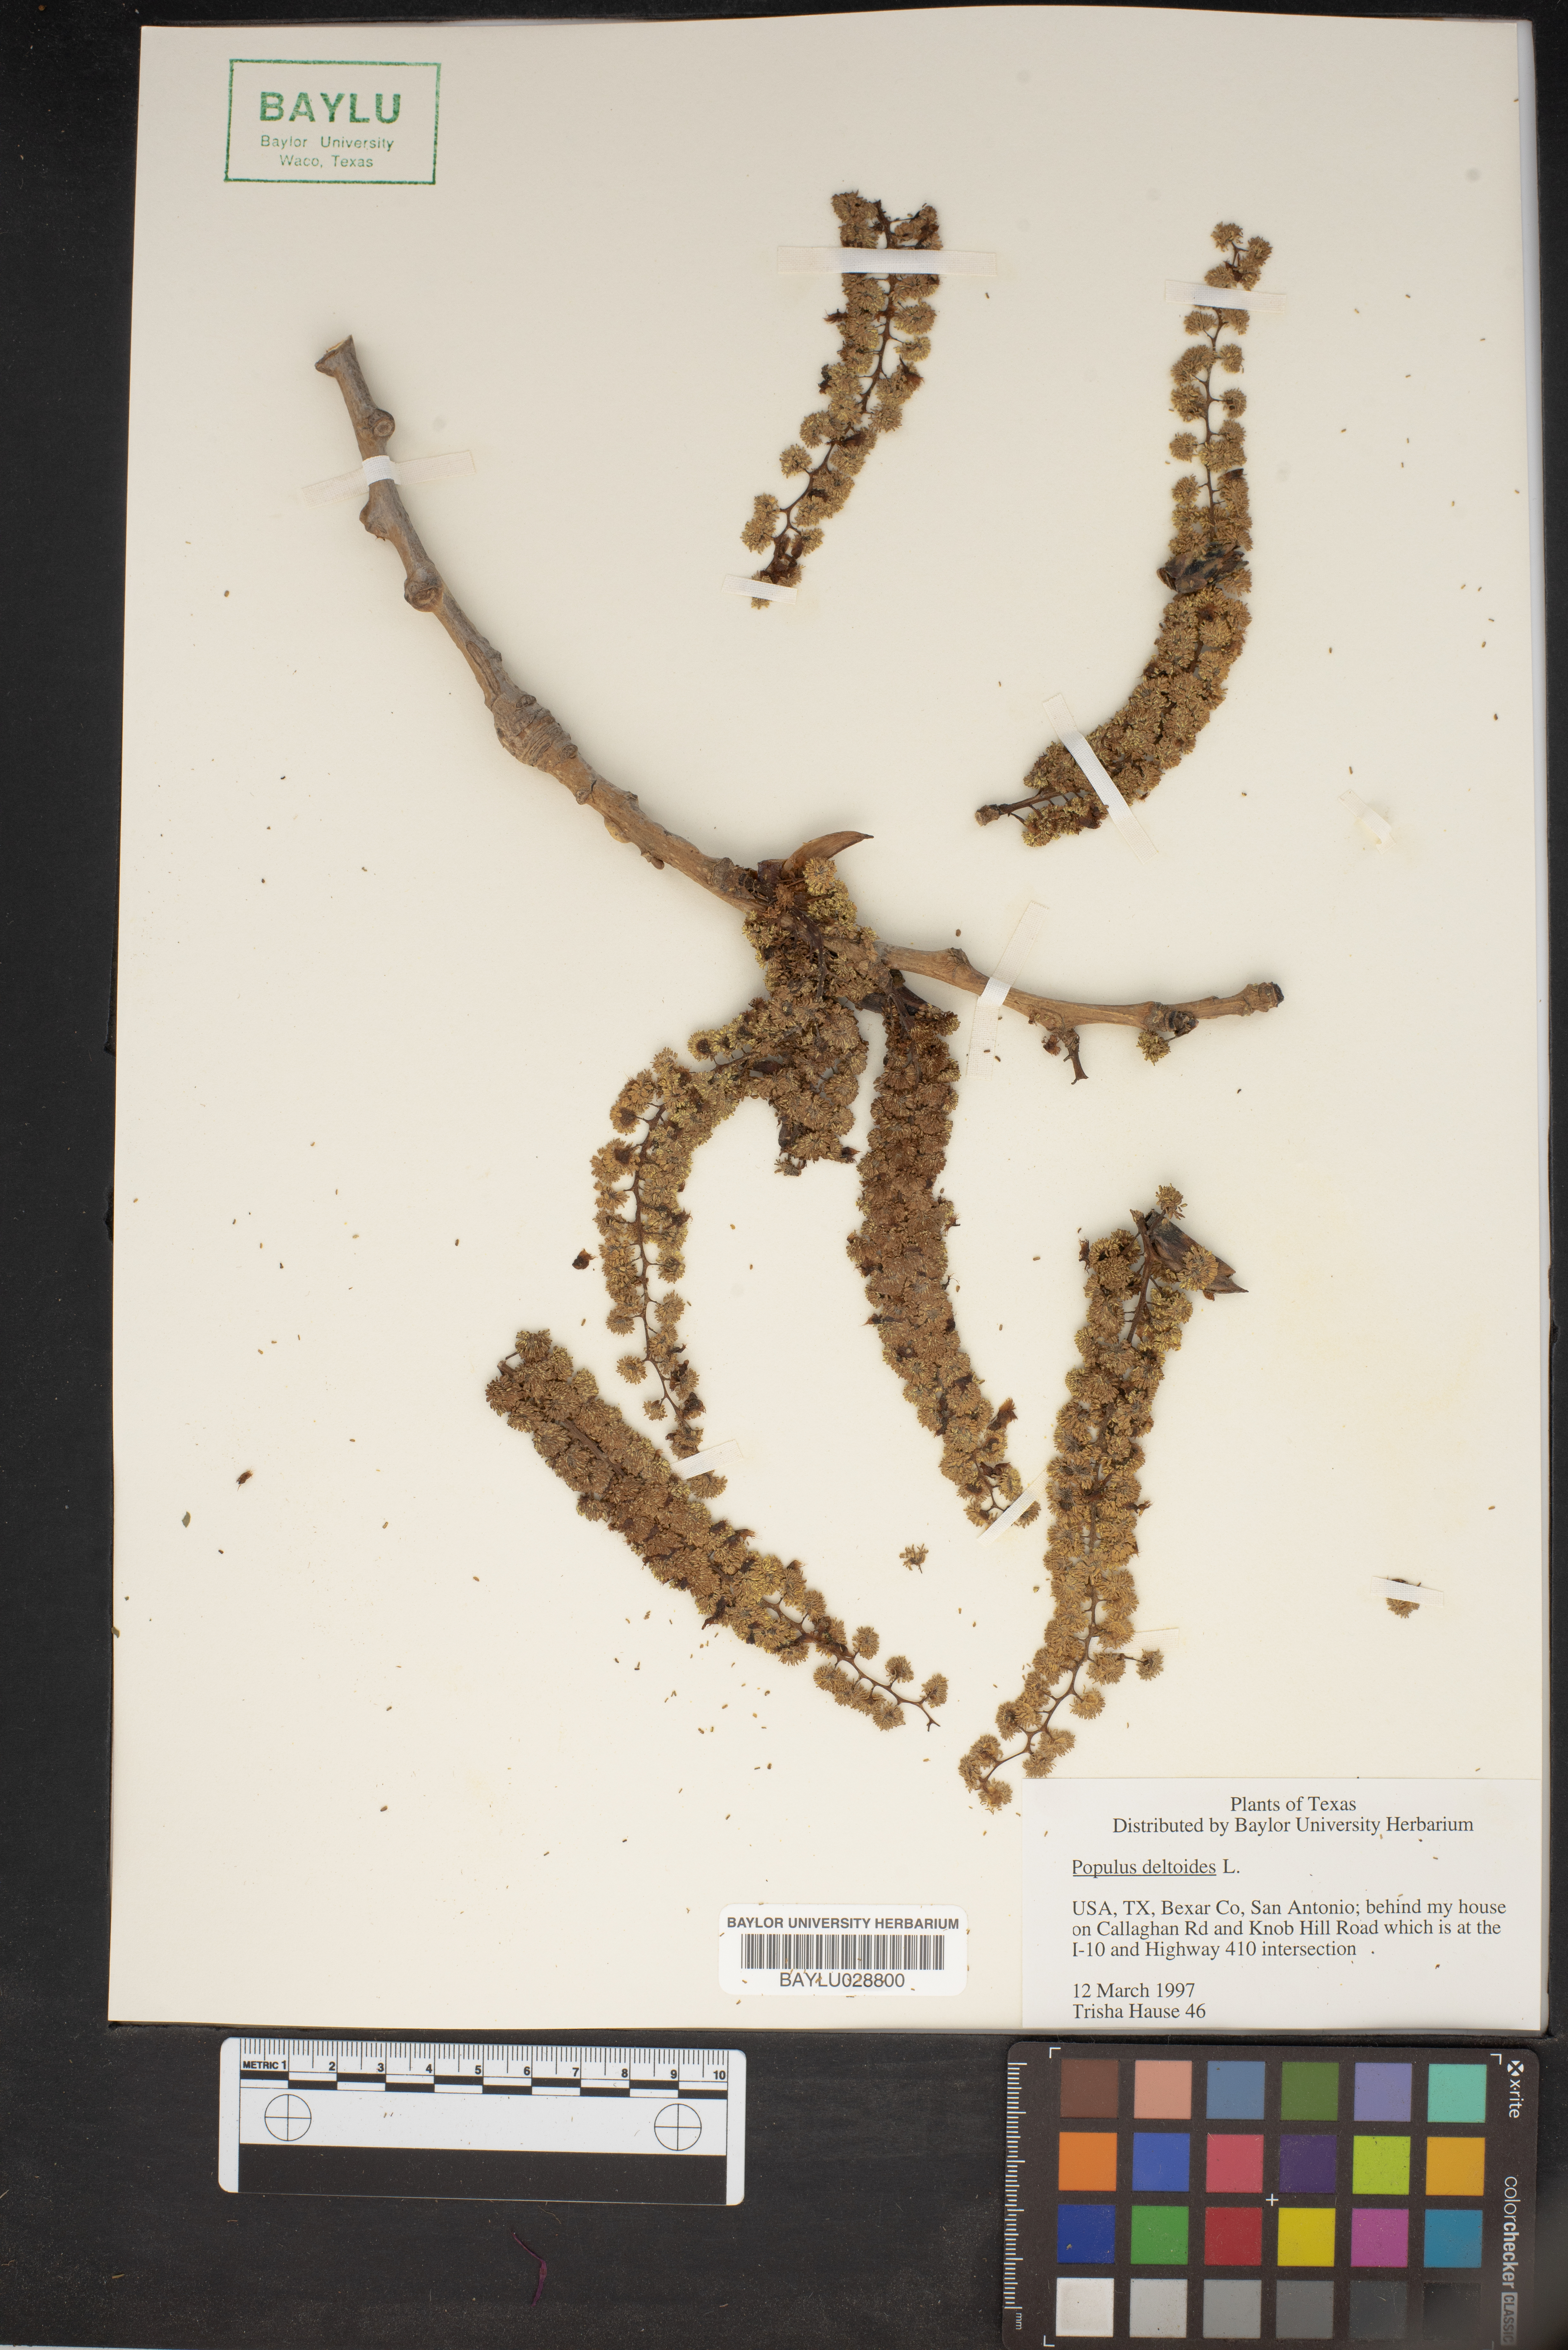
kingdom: Plantae
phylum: Tracheophyta
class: Magnoliopsida
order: Malpighiales
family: Salicaceae
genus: Populus
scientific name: Populus deltoides
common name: Eastern cottonwood
